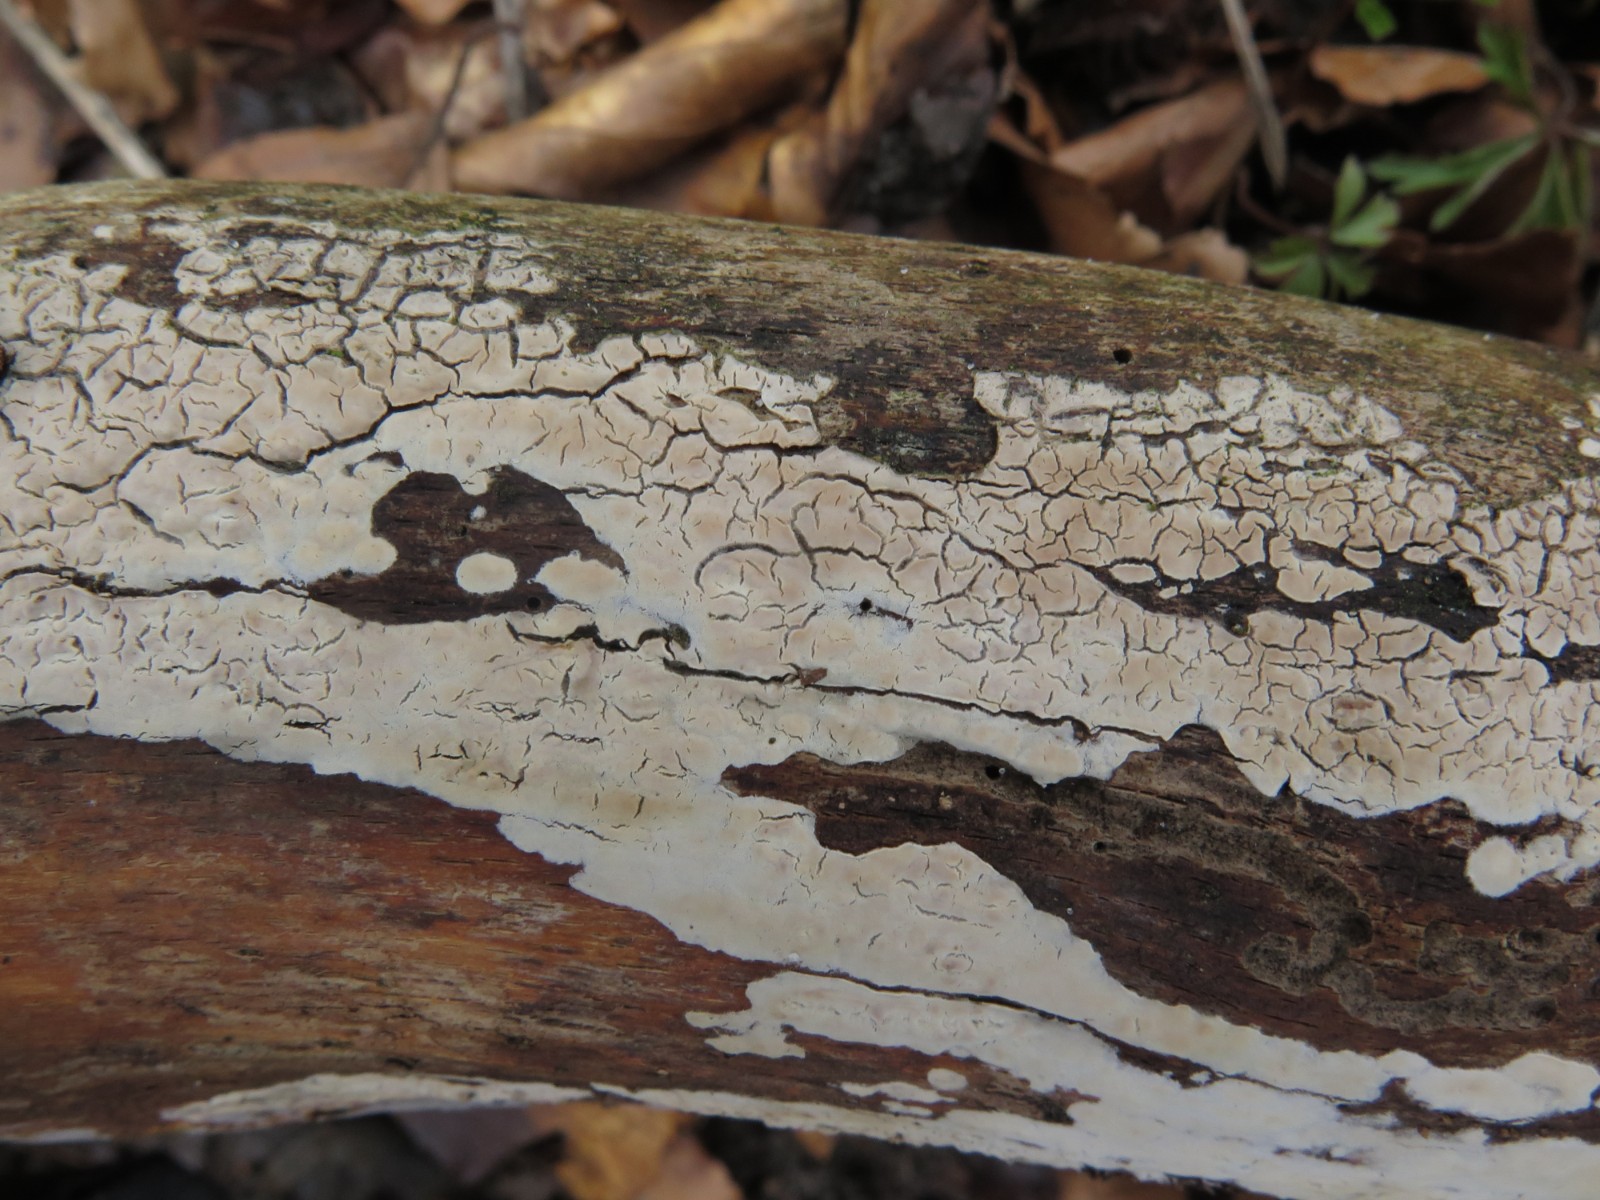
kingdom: Fungi
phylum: Basidiomycota
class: Agaricomycetes
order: Agaricales
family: Physalacriaceae
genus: Cylindrobasidium
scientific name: Cylindrobasidium evolvens
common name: sprækkehinde
